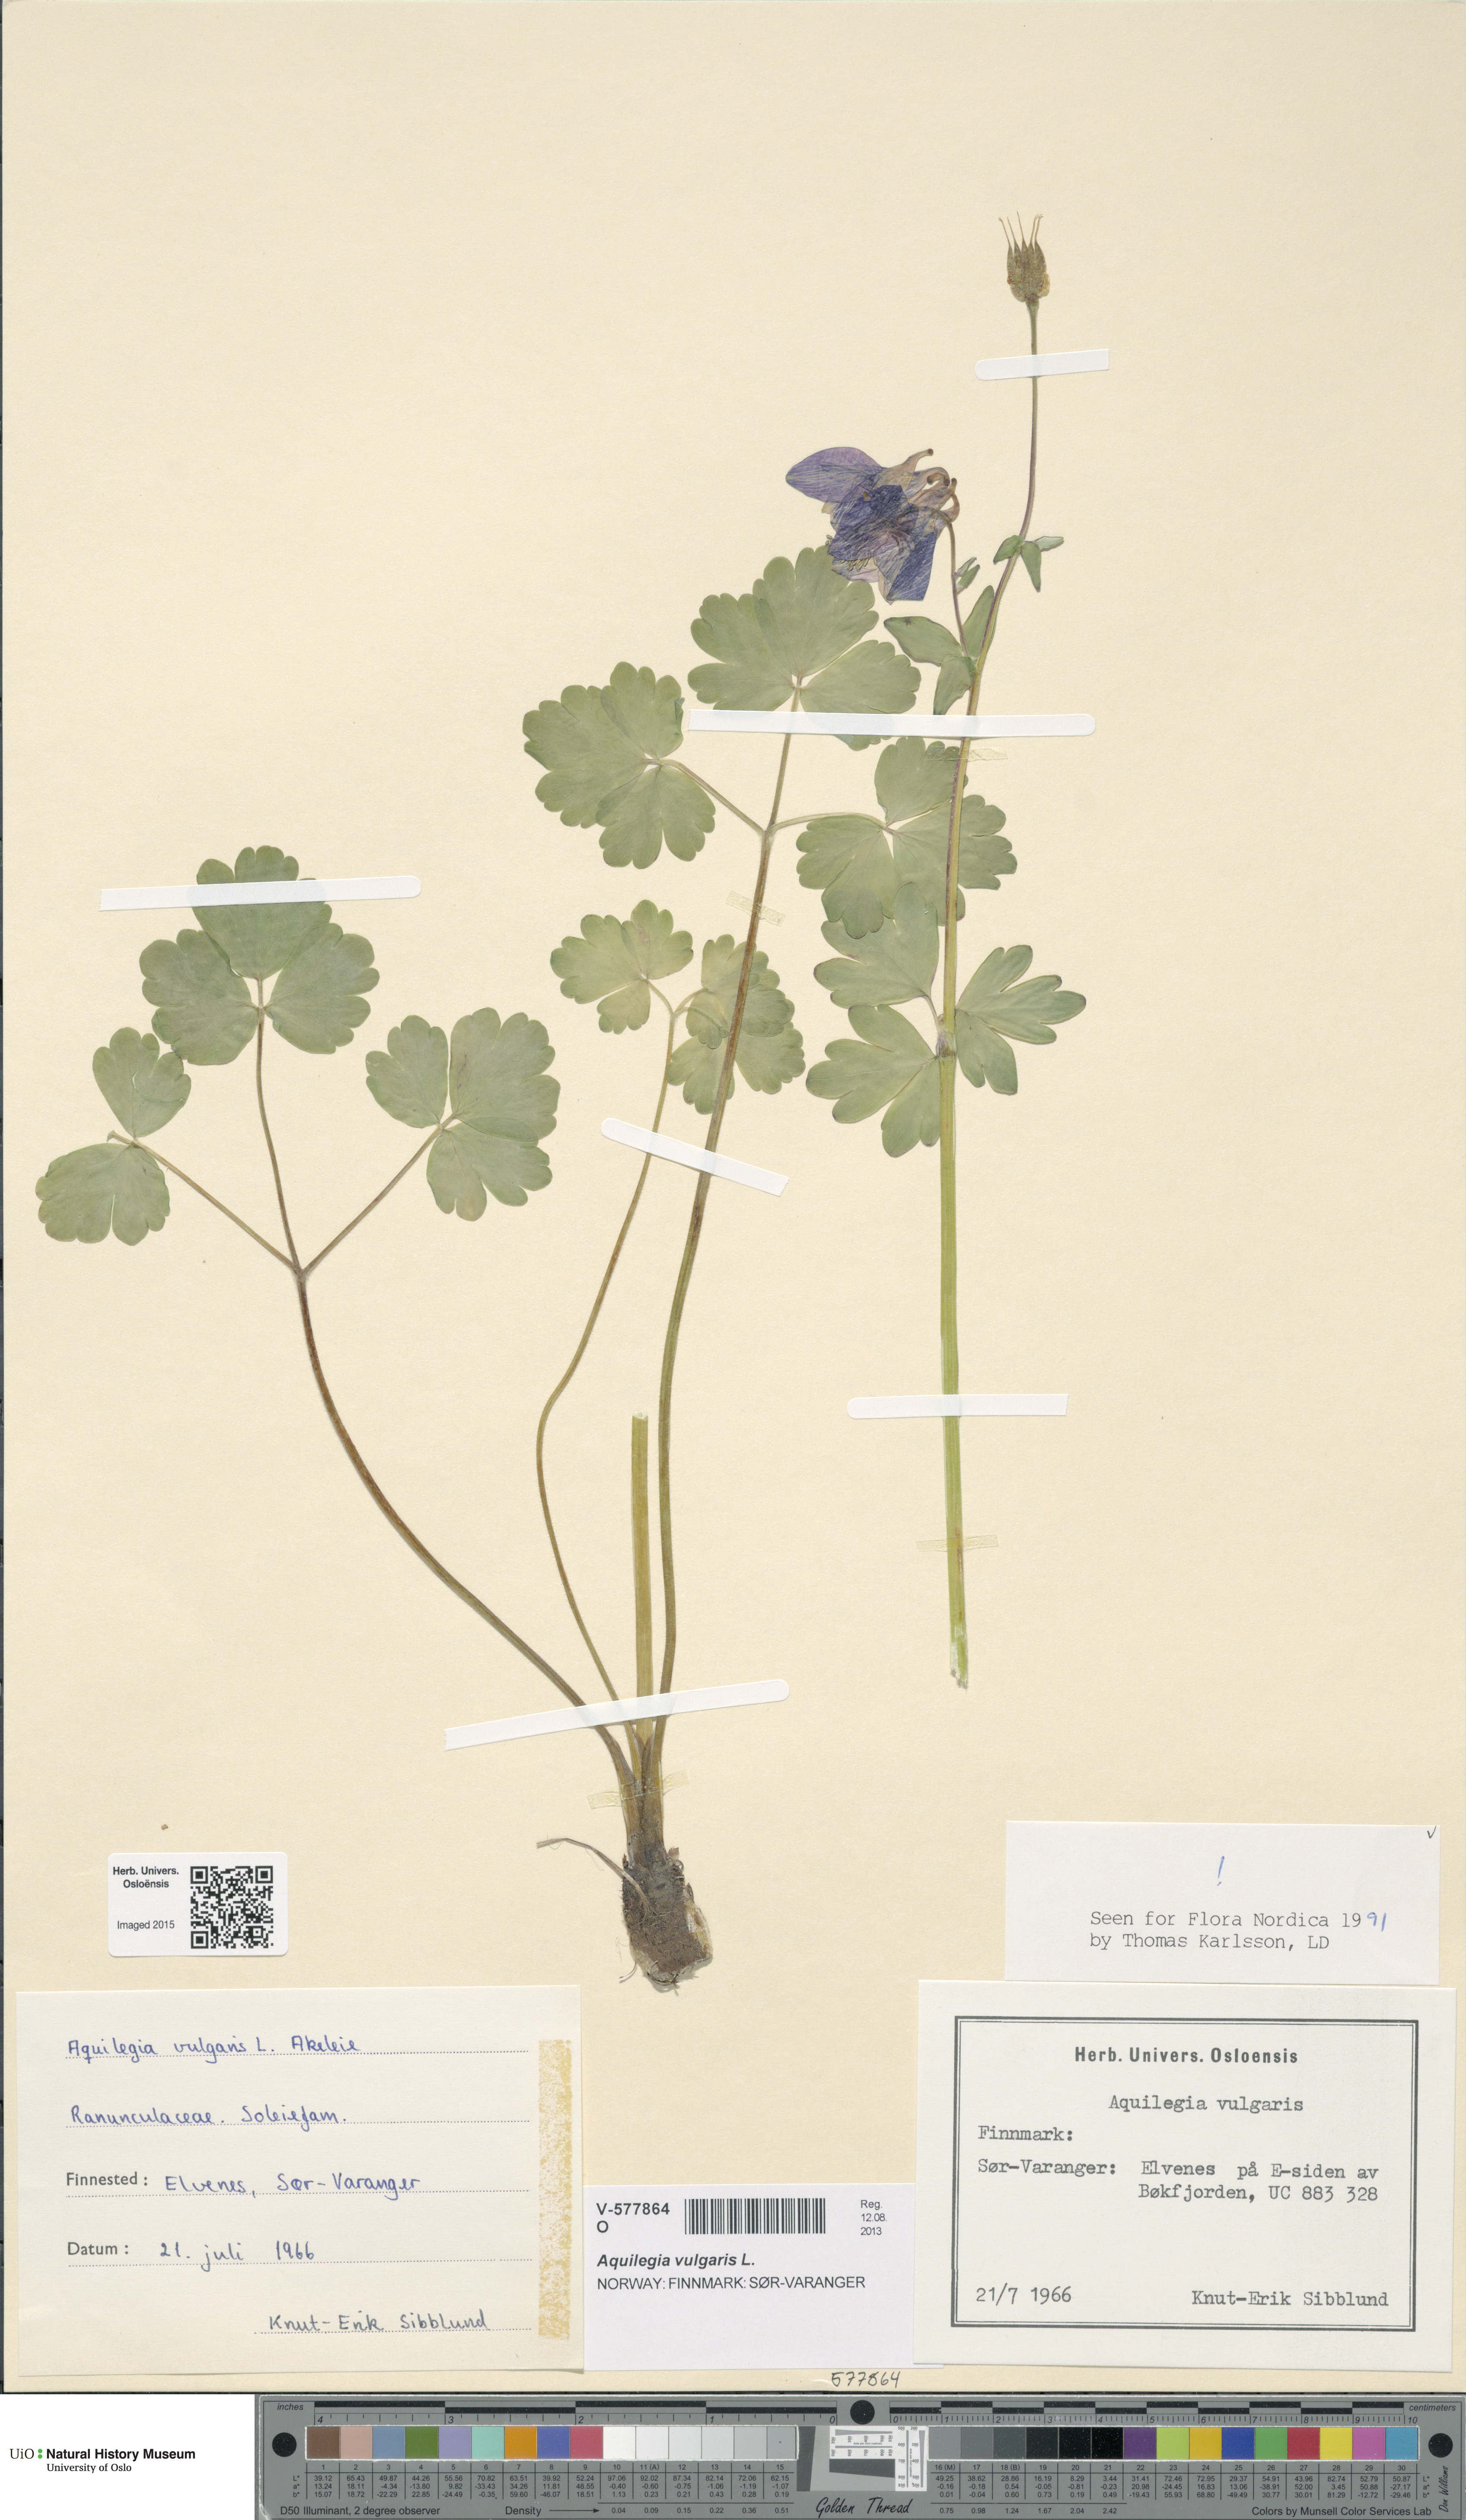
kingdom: Plantae
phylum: Tracheophyta
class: Magnoliopsida
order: Ranunculales
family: Ranunculaceae
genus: Aquilegia
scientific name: Aquilegia vulgaris
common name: Columbine
